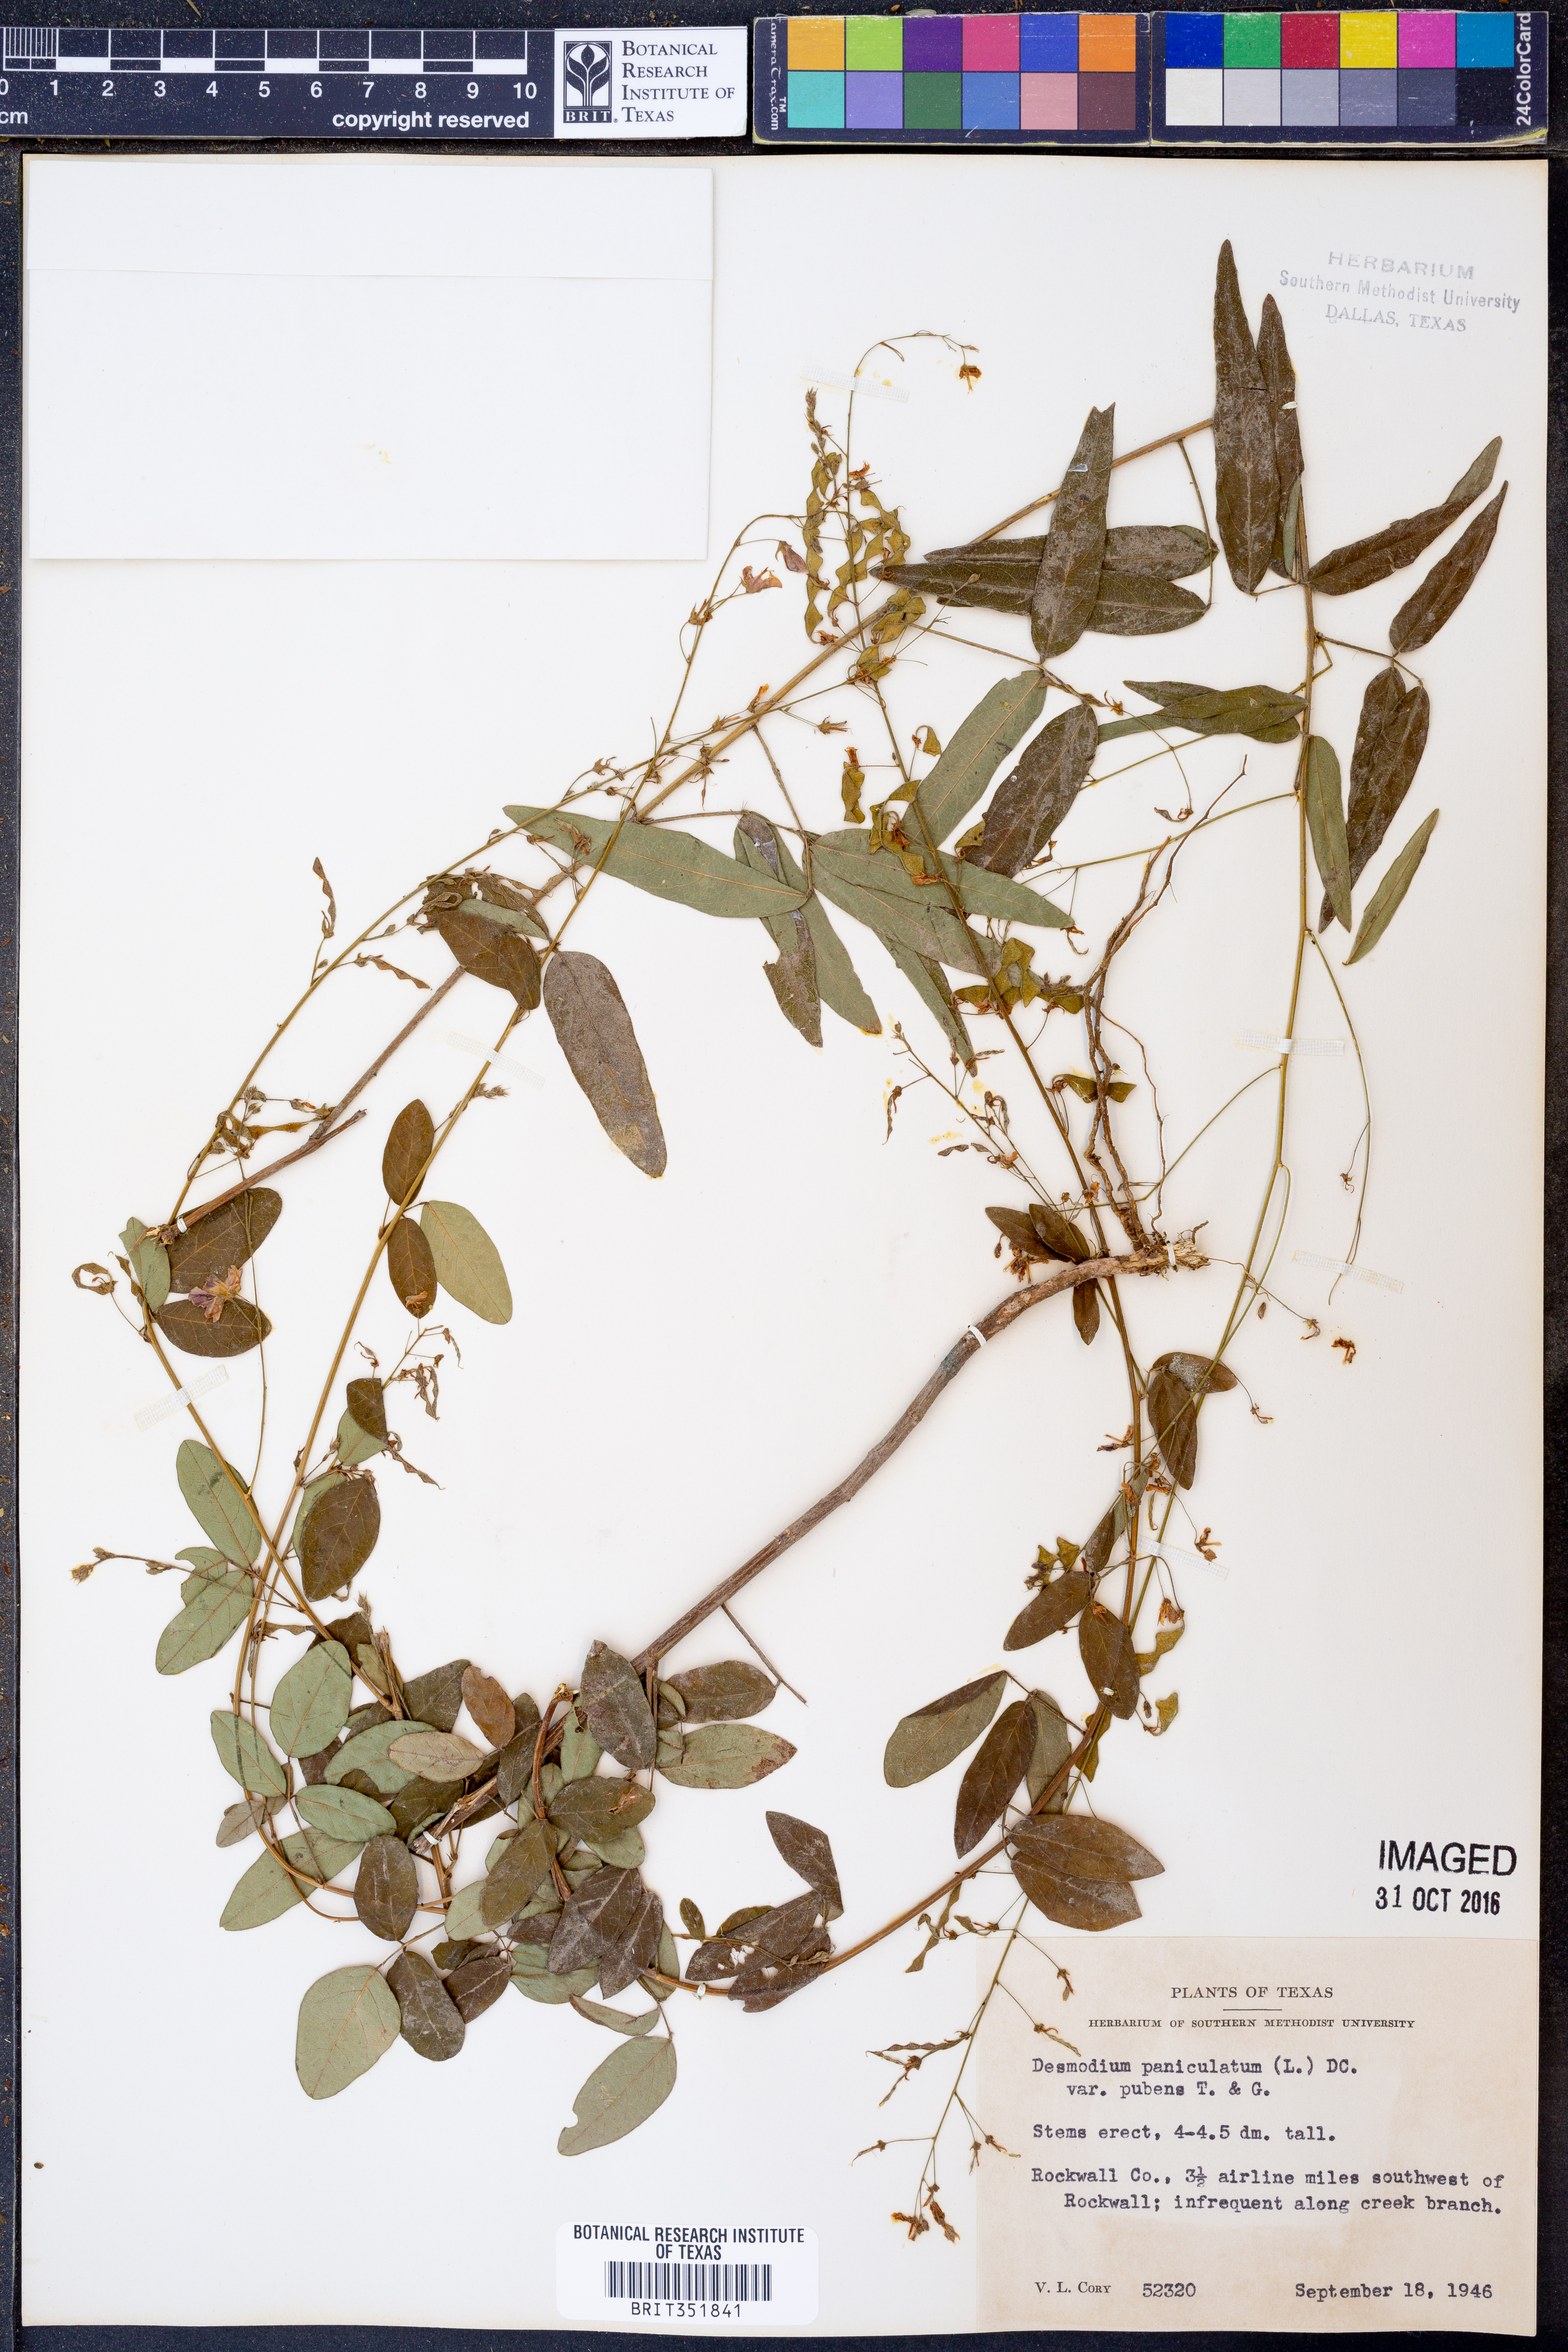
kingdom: Plantae
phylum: Tracheophyta
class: Magnoliopsida
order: Fabales
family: Fabaceae
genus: Desmodium
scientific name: Desmodium paniculatum
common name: Panicled tick-clover
